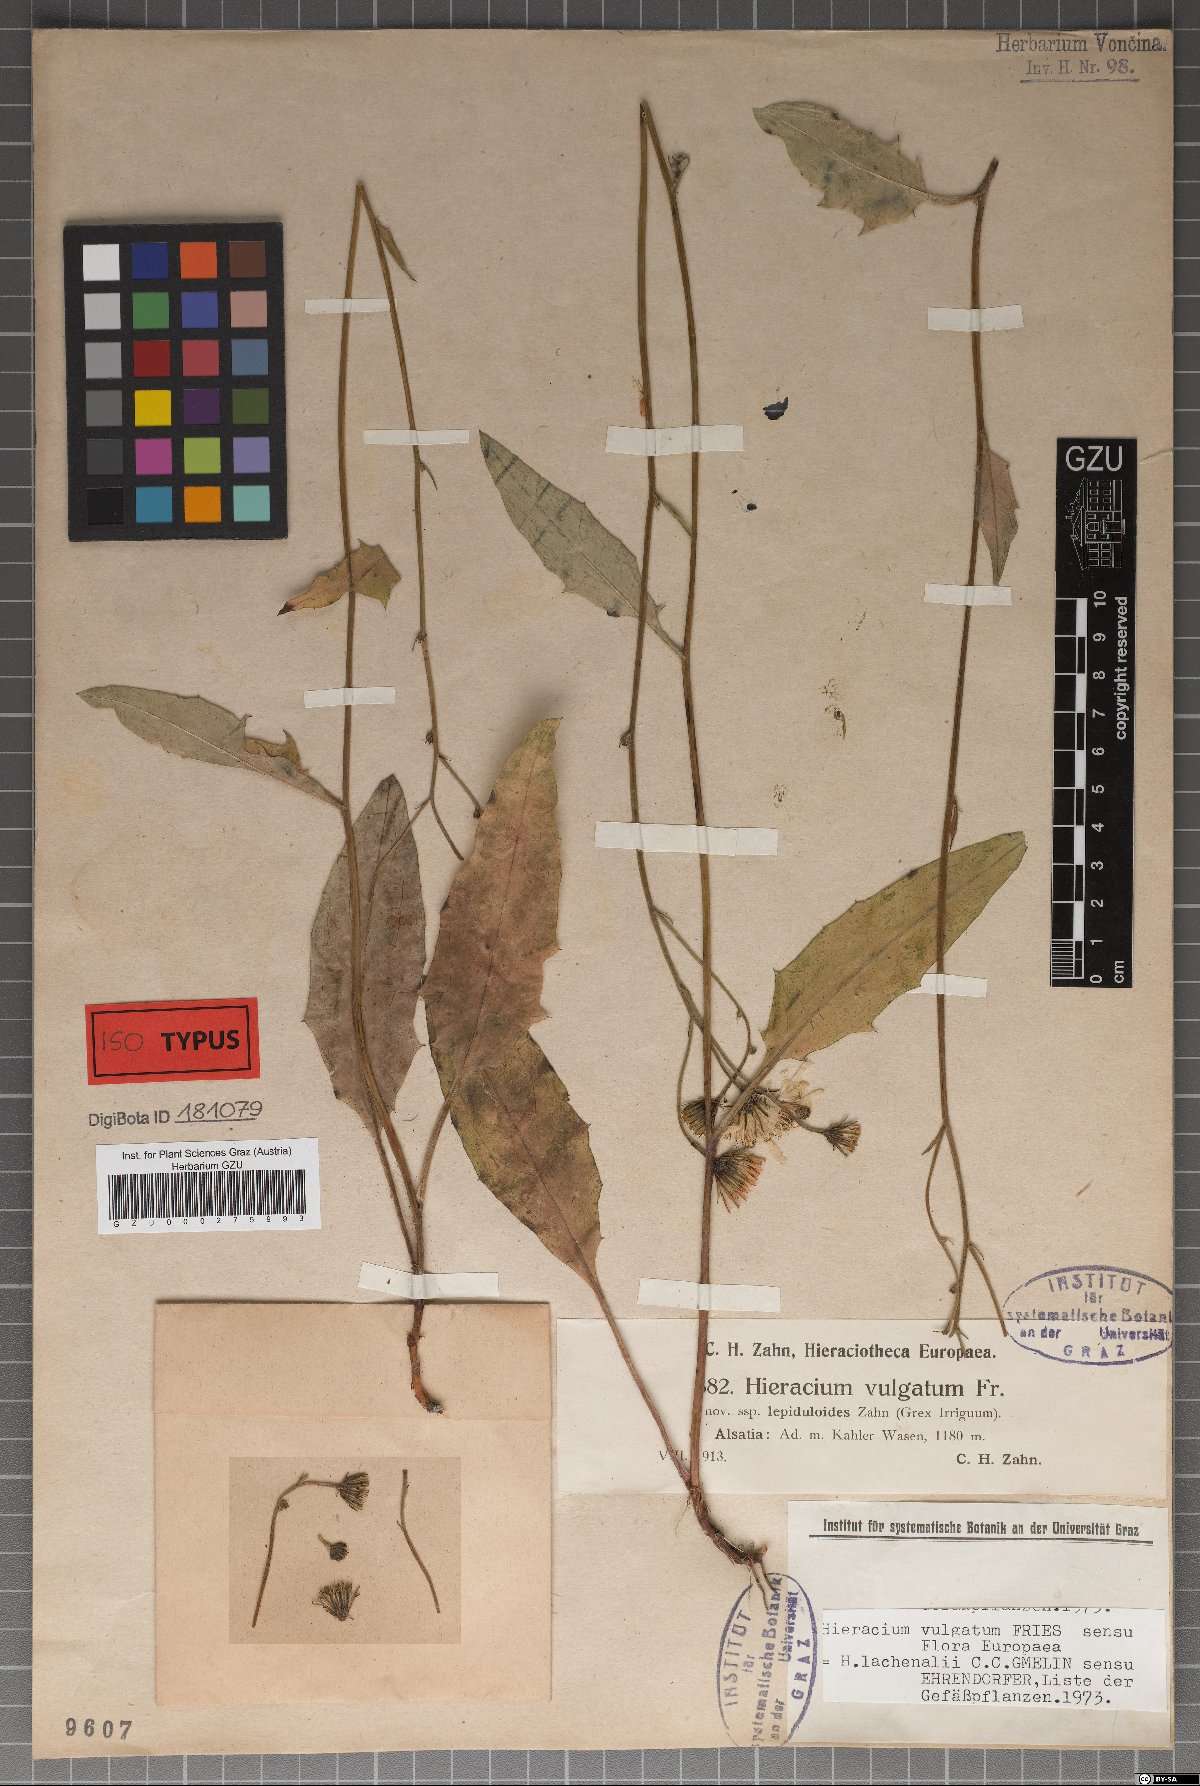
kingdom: Plantae
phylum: Tracheophyta
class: Magnoliopsida
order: Asterales
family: Asteraceae
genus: Hieracium
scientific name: Hieracium lachenalii
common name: Common hawkweed
